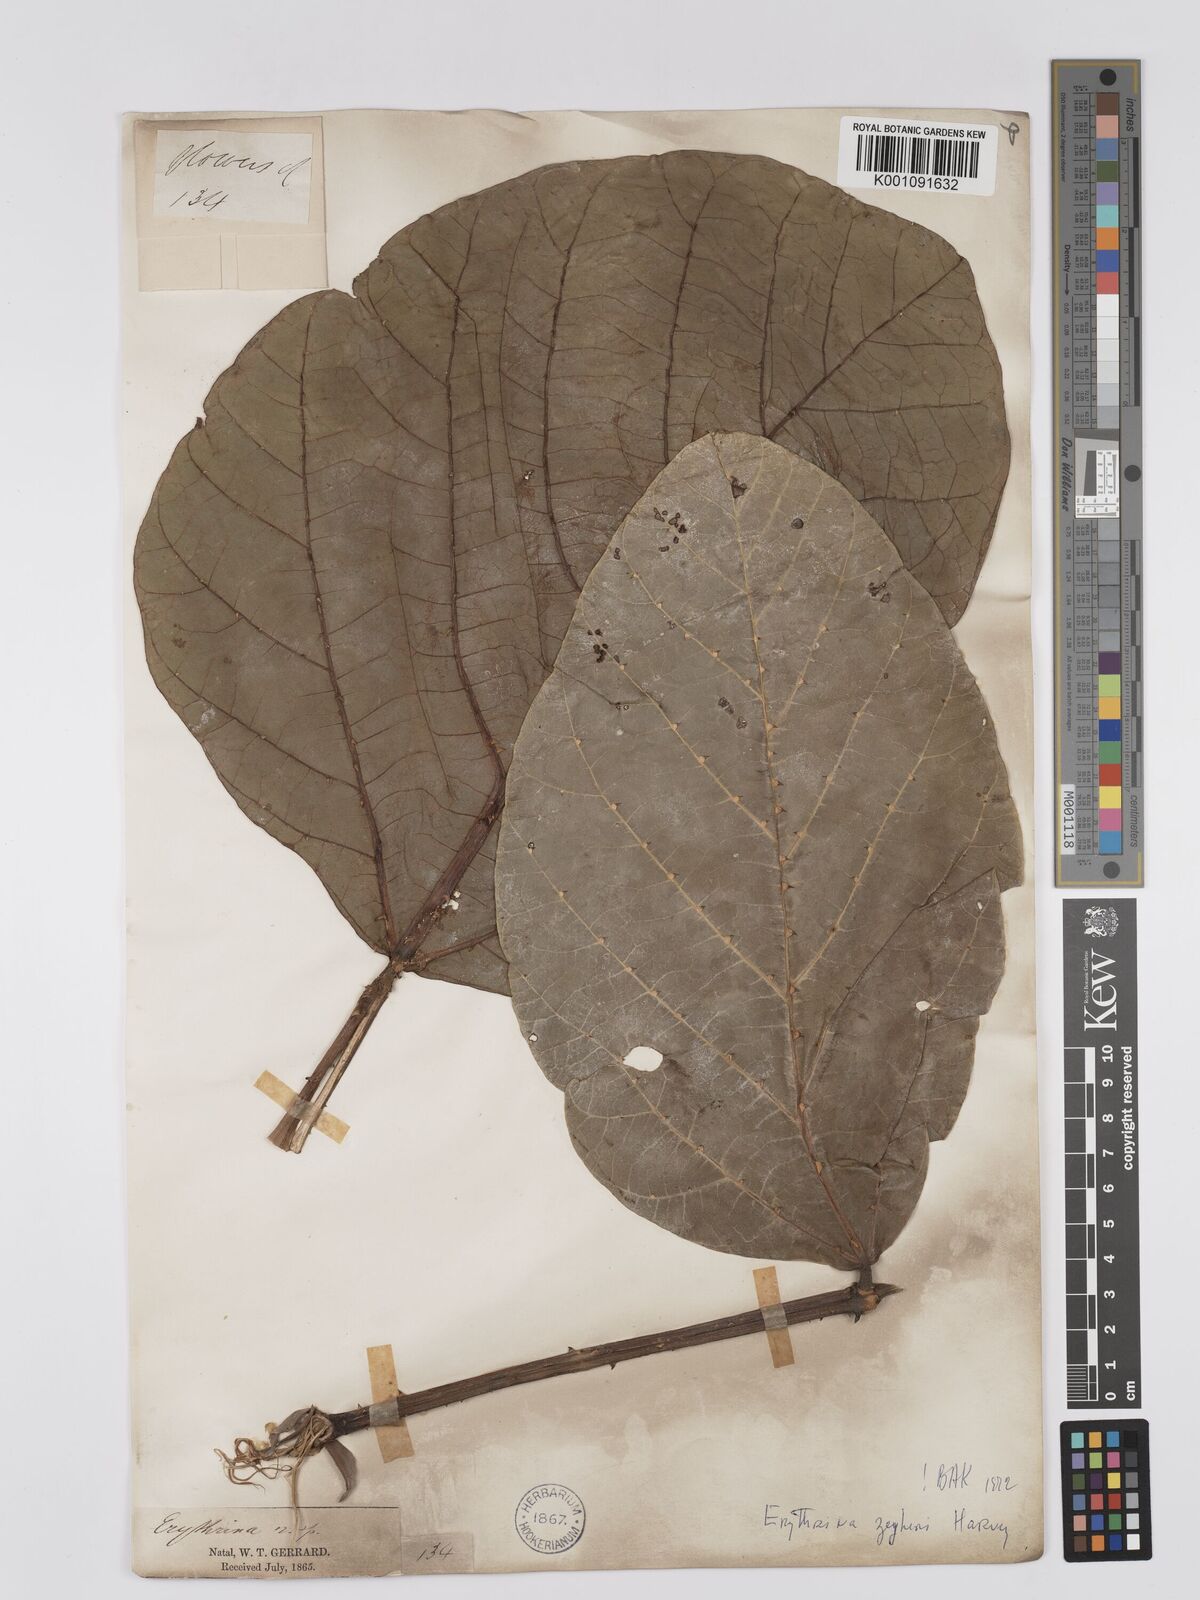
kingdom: Plantae
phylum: Tracheophyta
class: Magnoliopsida
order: Fabales
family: Fabaceae
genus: Erythrina
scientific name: Erythrina zeyheri
